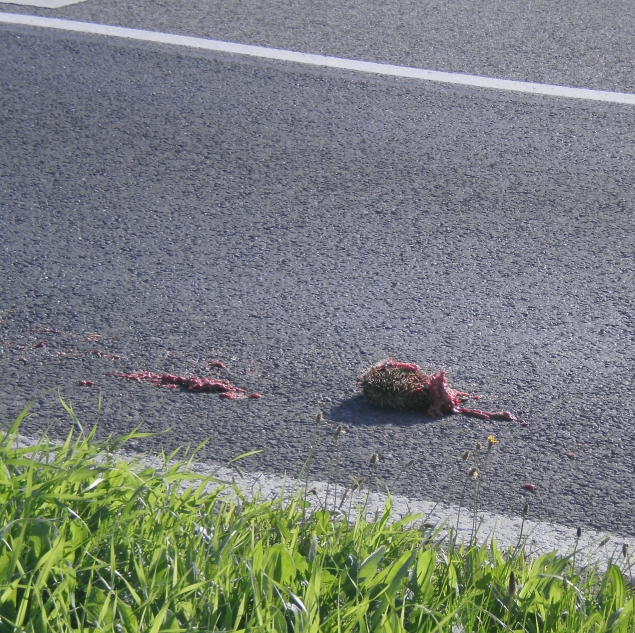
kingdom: Animalia
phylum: Chordata
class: Mammalia
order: Erinaceomorpha
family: Erinaceidae
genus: Erinaceus
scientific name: Erinaceus
